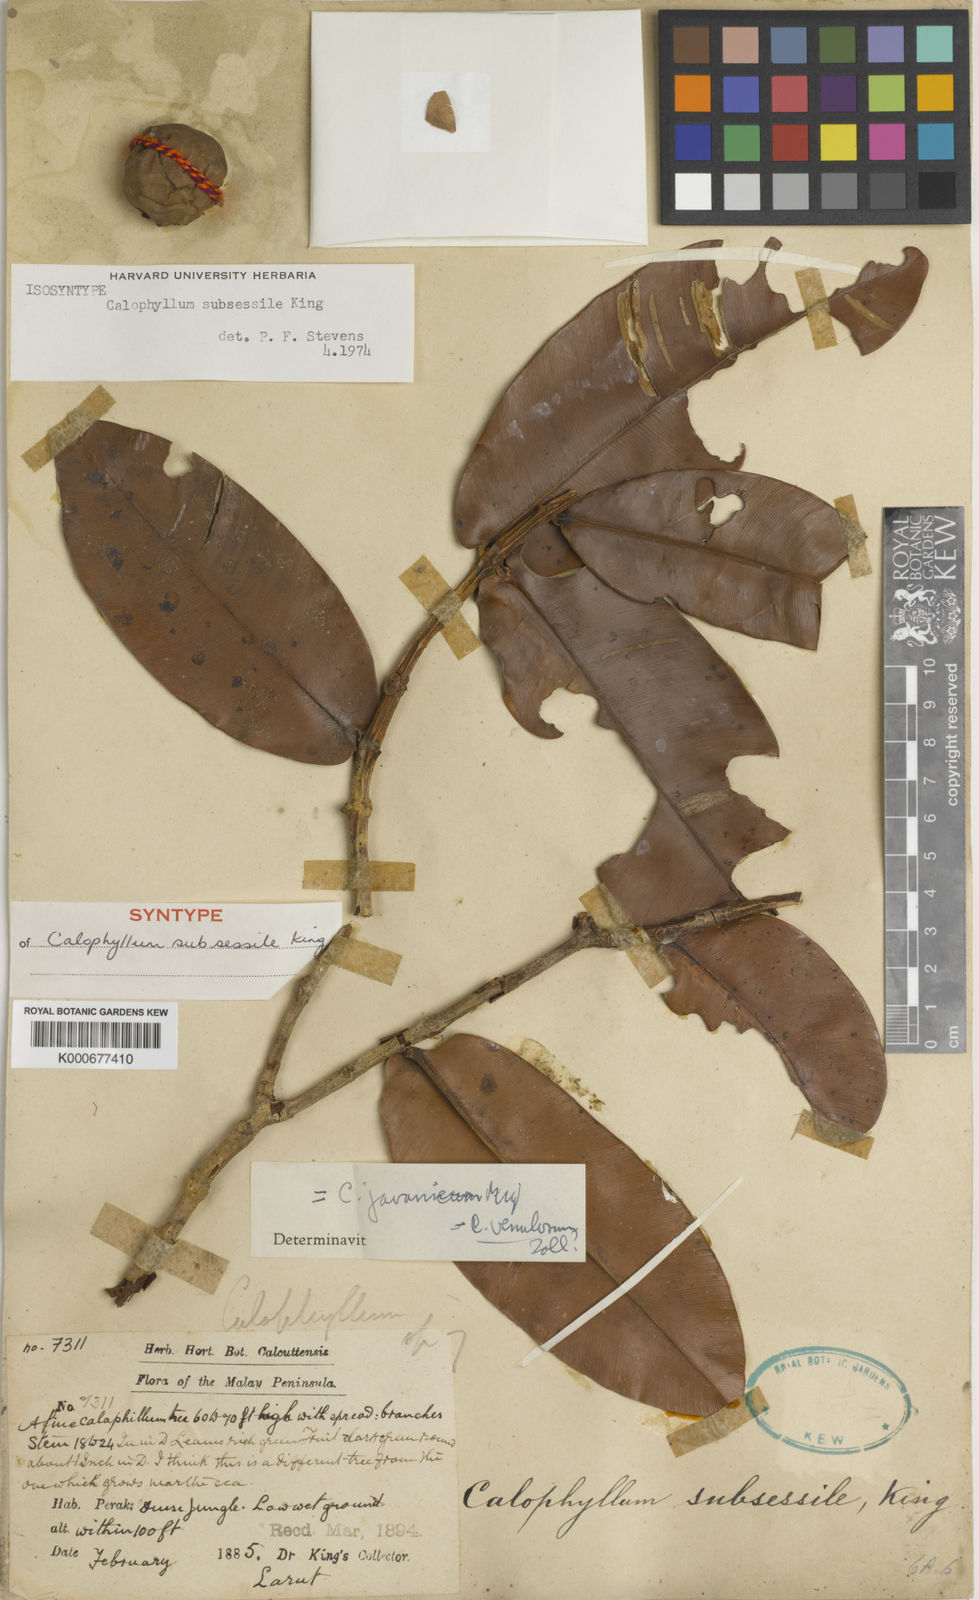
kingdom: Plantae
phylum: Tracheophyta
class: Magnoliopsida
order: Malpighiales
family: Calophyllaceae
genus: Calophyllum
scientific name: Calophyllum subsessile
